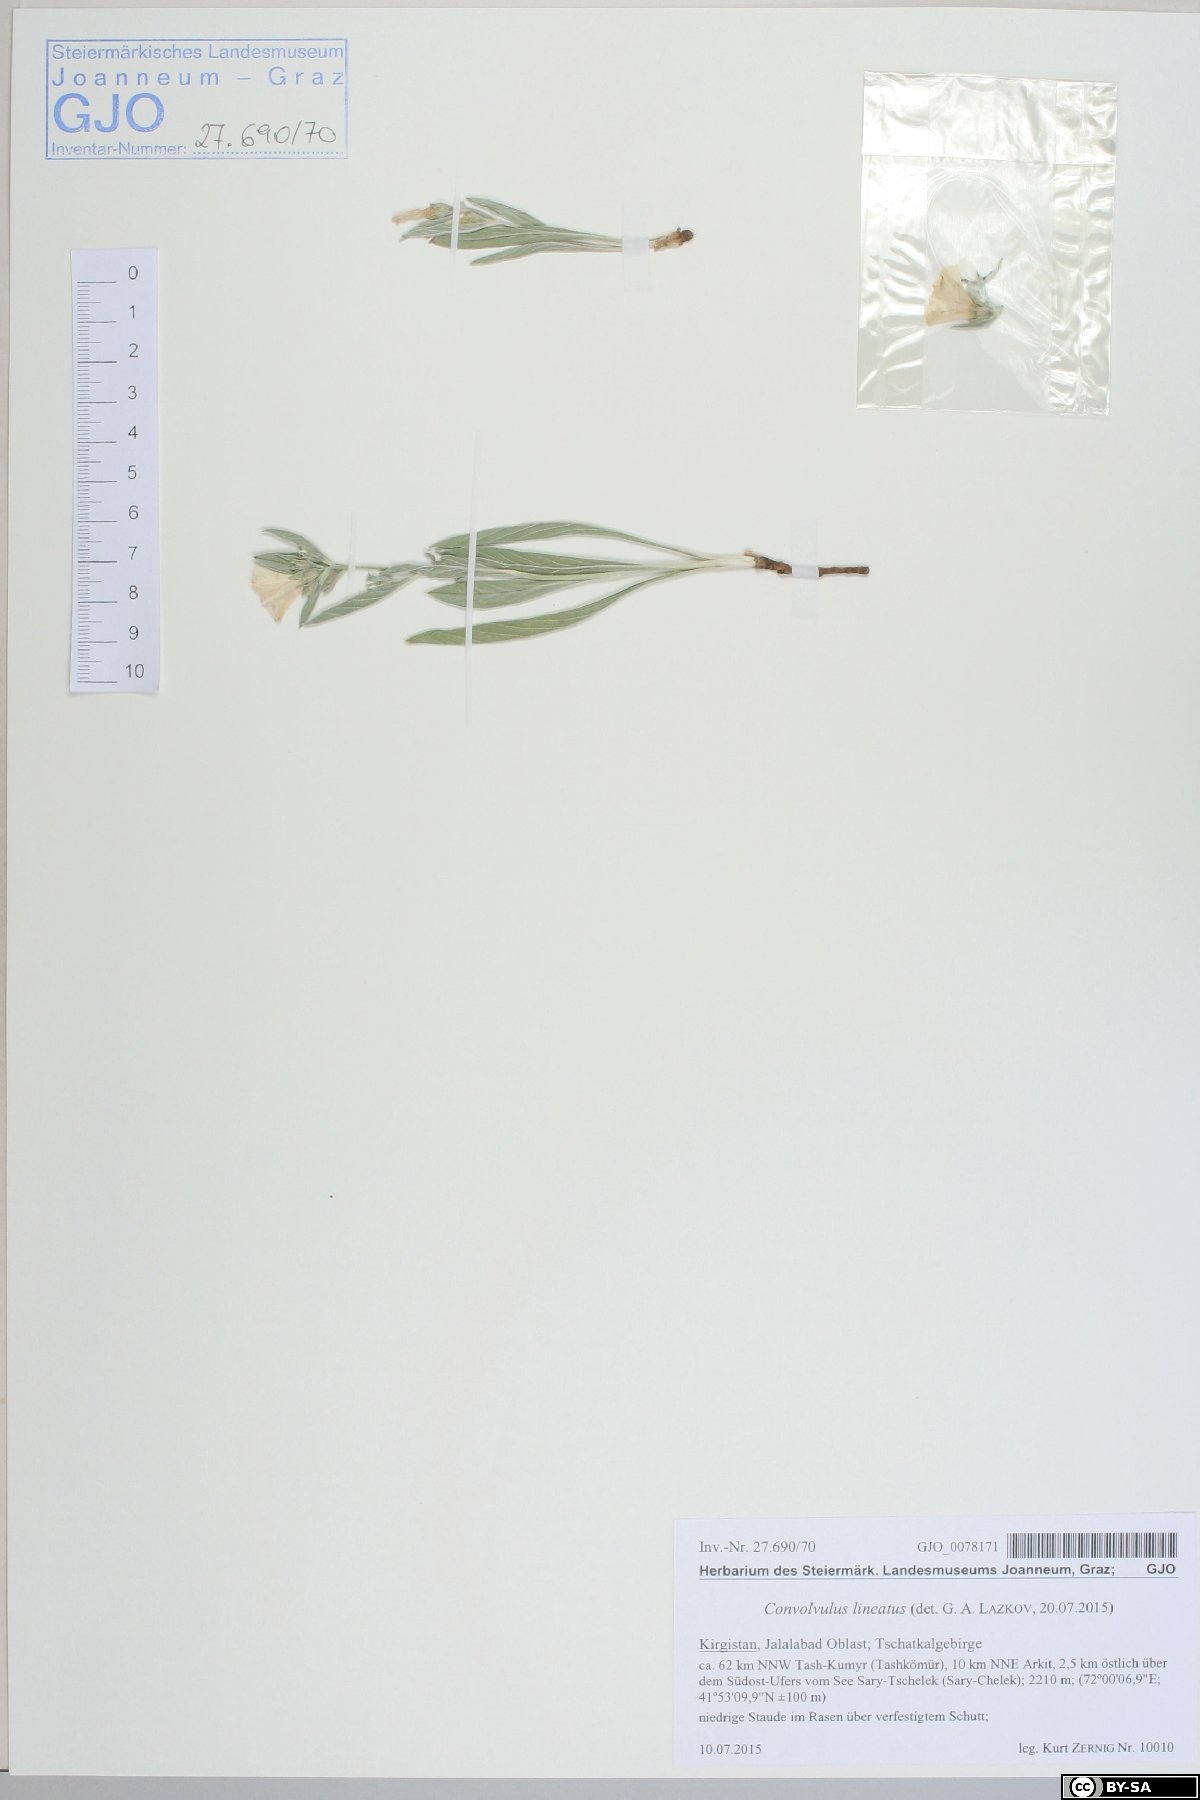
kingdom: Plantae
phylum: Tracheophyta
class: Magnoliopsida
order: Solanales
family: Convolvulaceae
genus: Convolvulus
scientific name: Convolvulus lineatus
